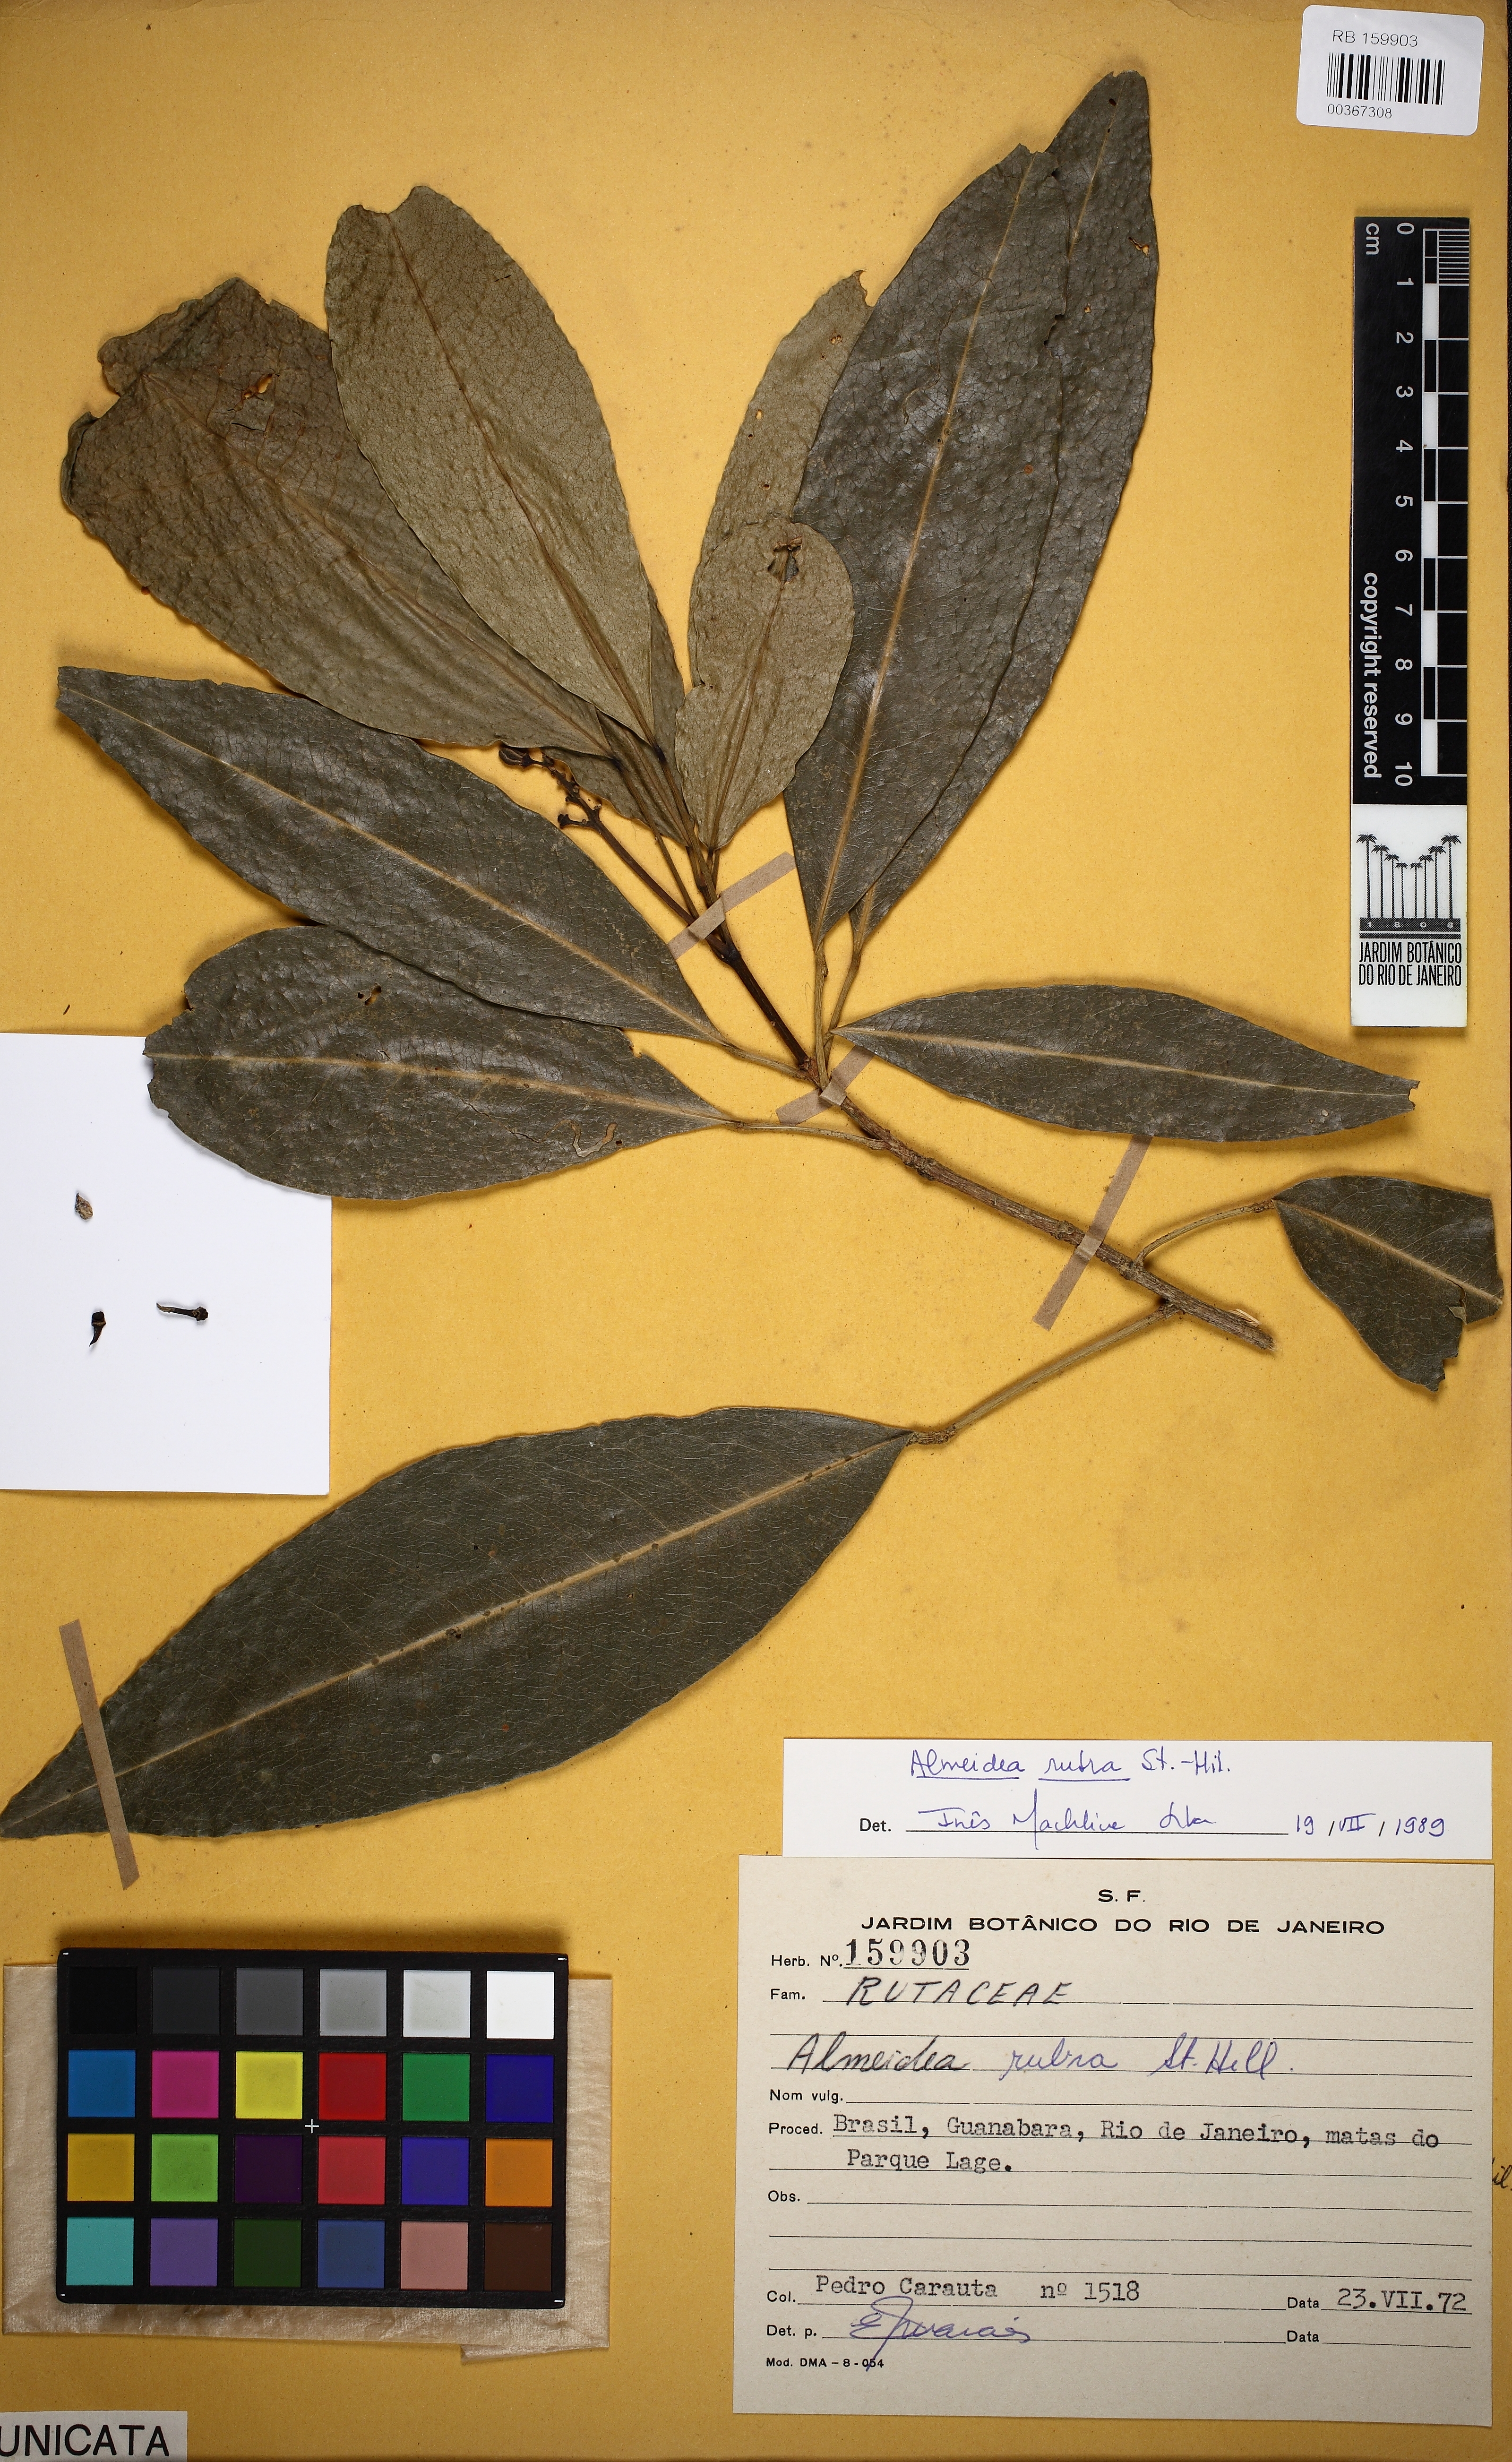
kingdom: Plantae
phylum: Tracheophyta
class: Magnoliopsida
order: Sapindales
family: Rutaceae
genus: Conchocarpus
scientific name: Conchocarpus ruber
